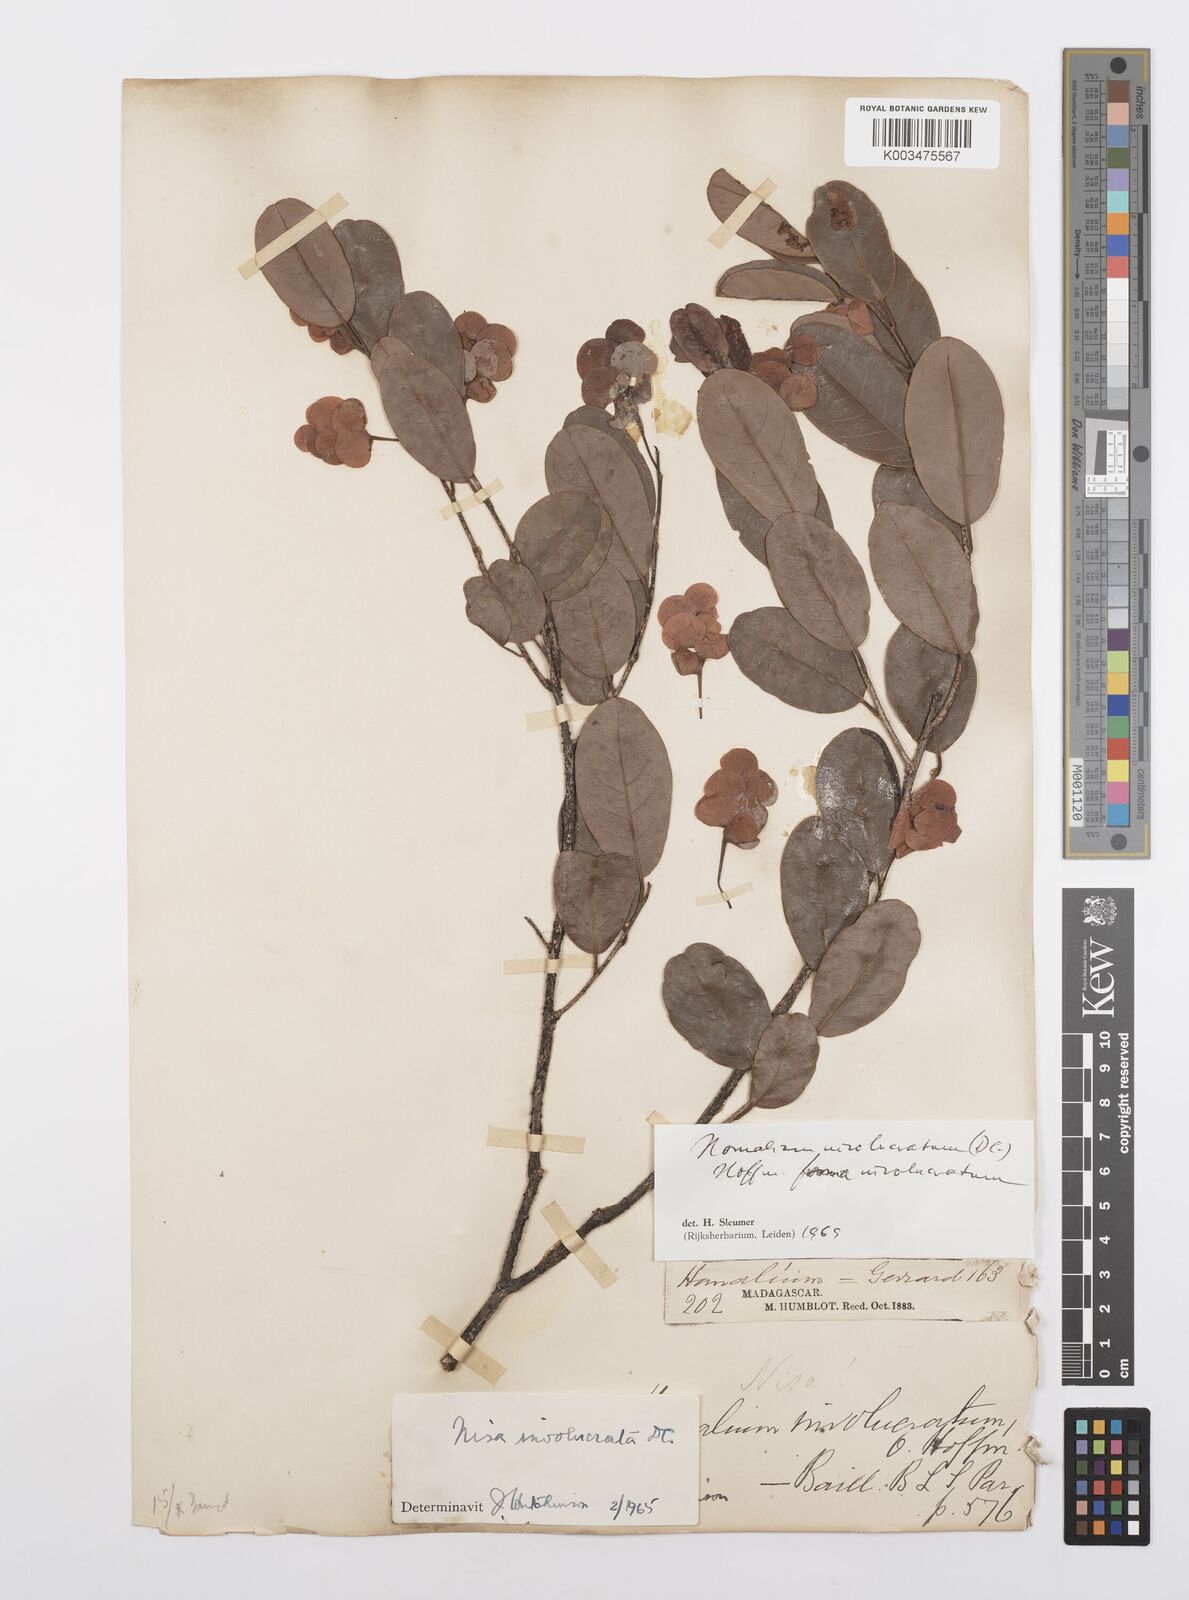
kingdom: Plantae
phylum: Tracheophyta
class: Magnoliopsida
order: Malpighiales
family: Salicaceae
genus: Homalium
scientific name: Homalium involucratum
